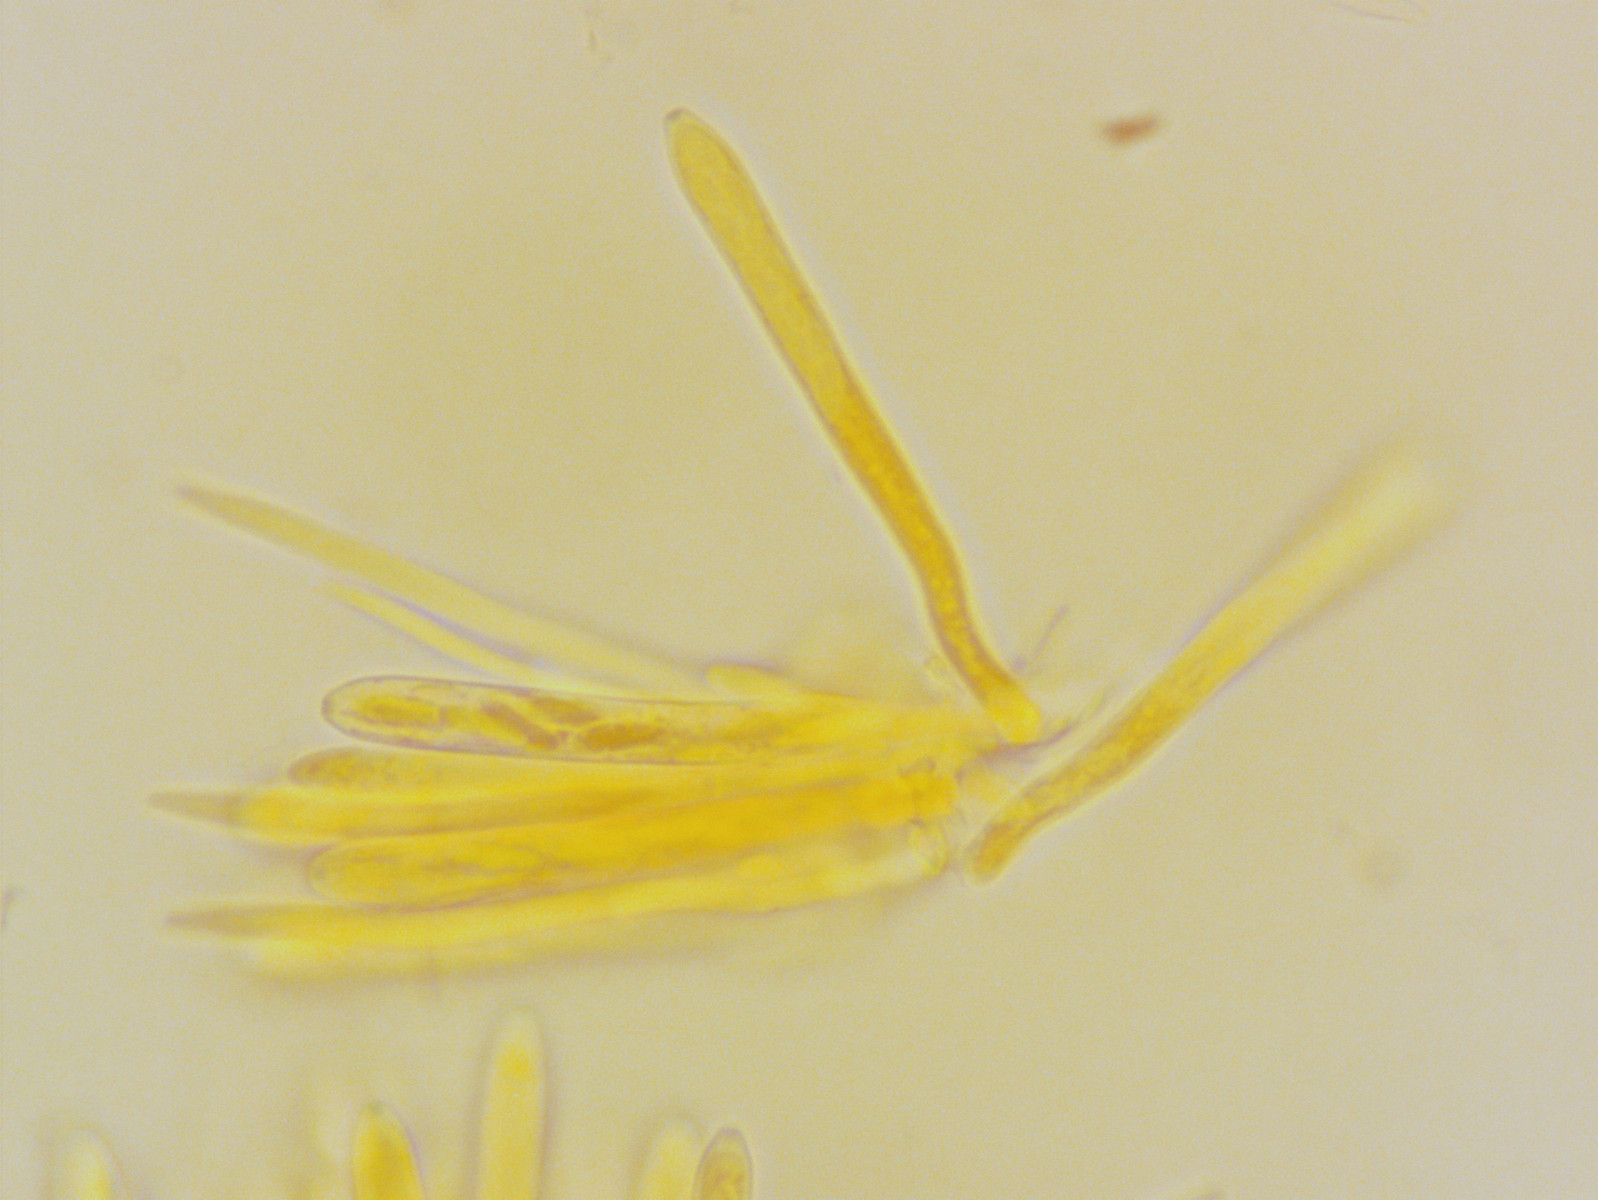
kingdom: Fungi
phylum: Ascomycota
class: Leotiomycetes
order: Helotiales
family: Lachnaceae
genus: Lachnum
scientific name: Lachnum brevipilosum
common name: korthåret frynseskive
